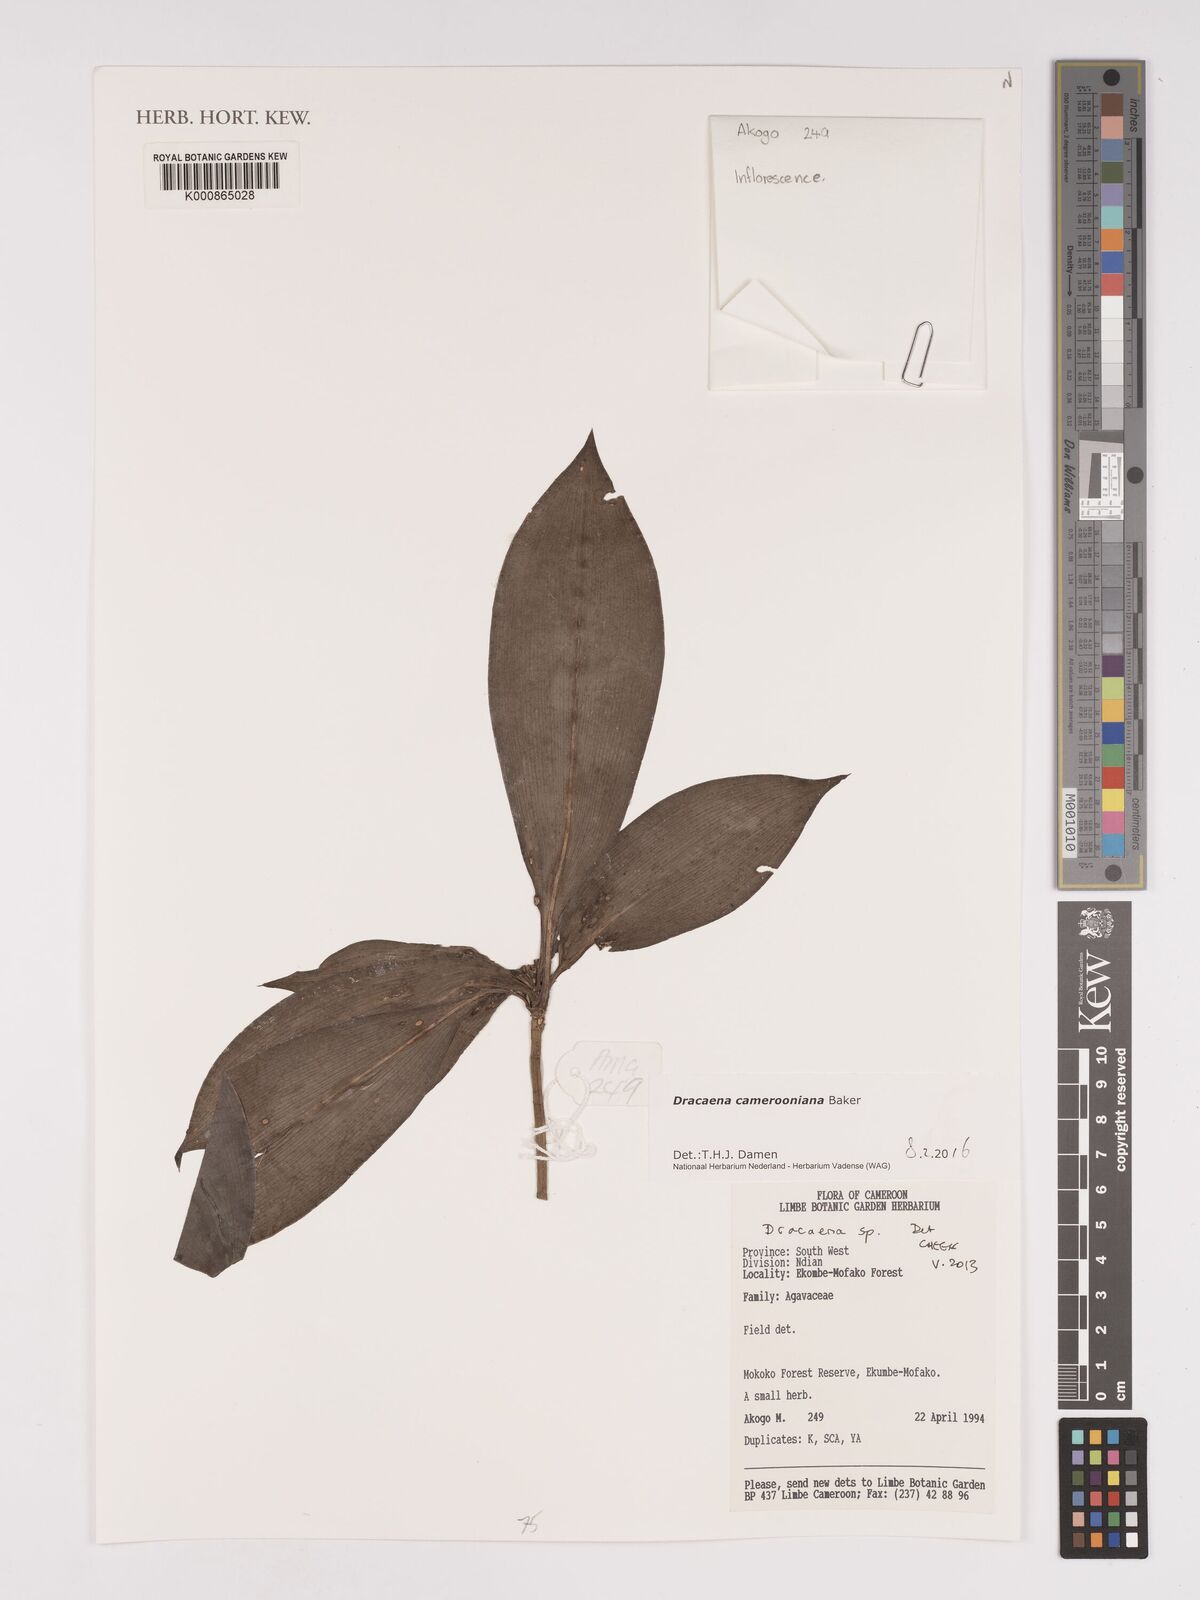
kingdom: Plantae
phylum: Tracheophyta
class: Liliopsida
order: Asparagales
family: Asparagaceae
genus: Dracaena
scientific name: Dracaena camerooniana
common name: Dragon tree
